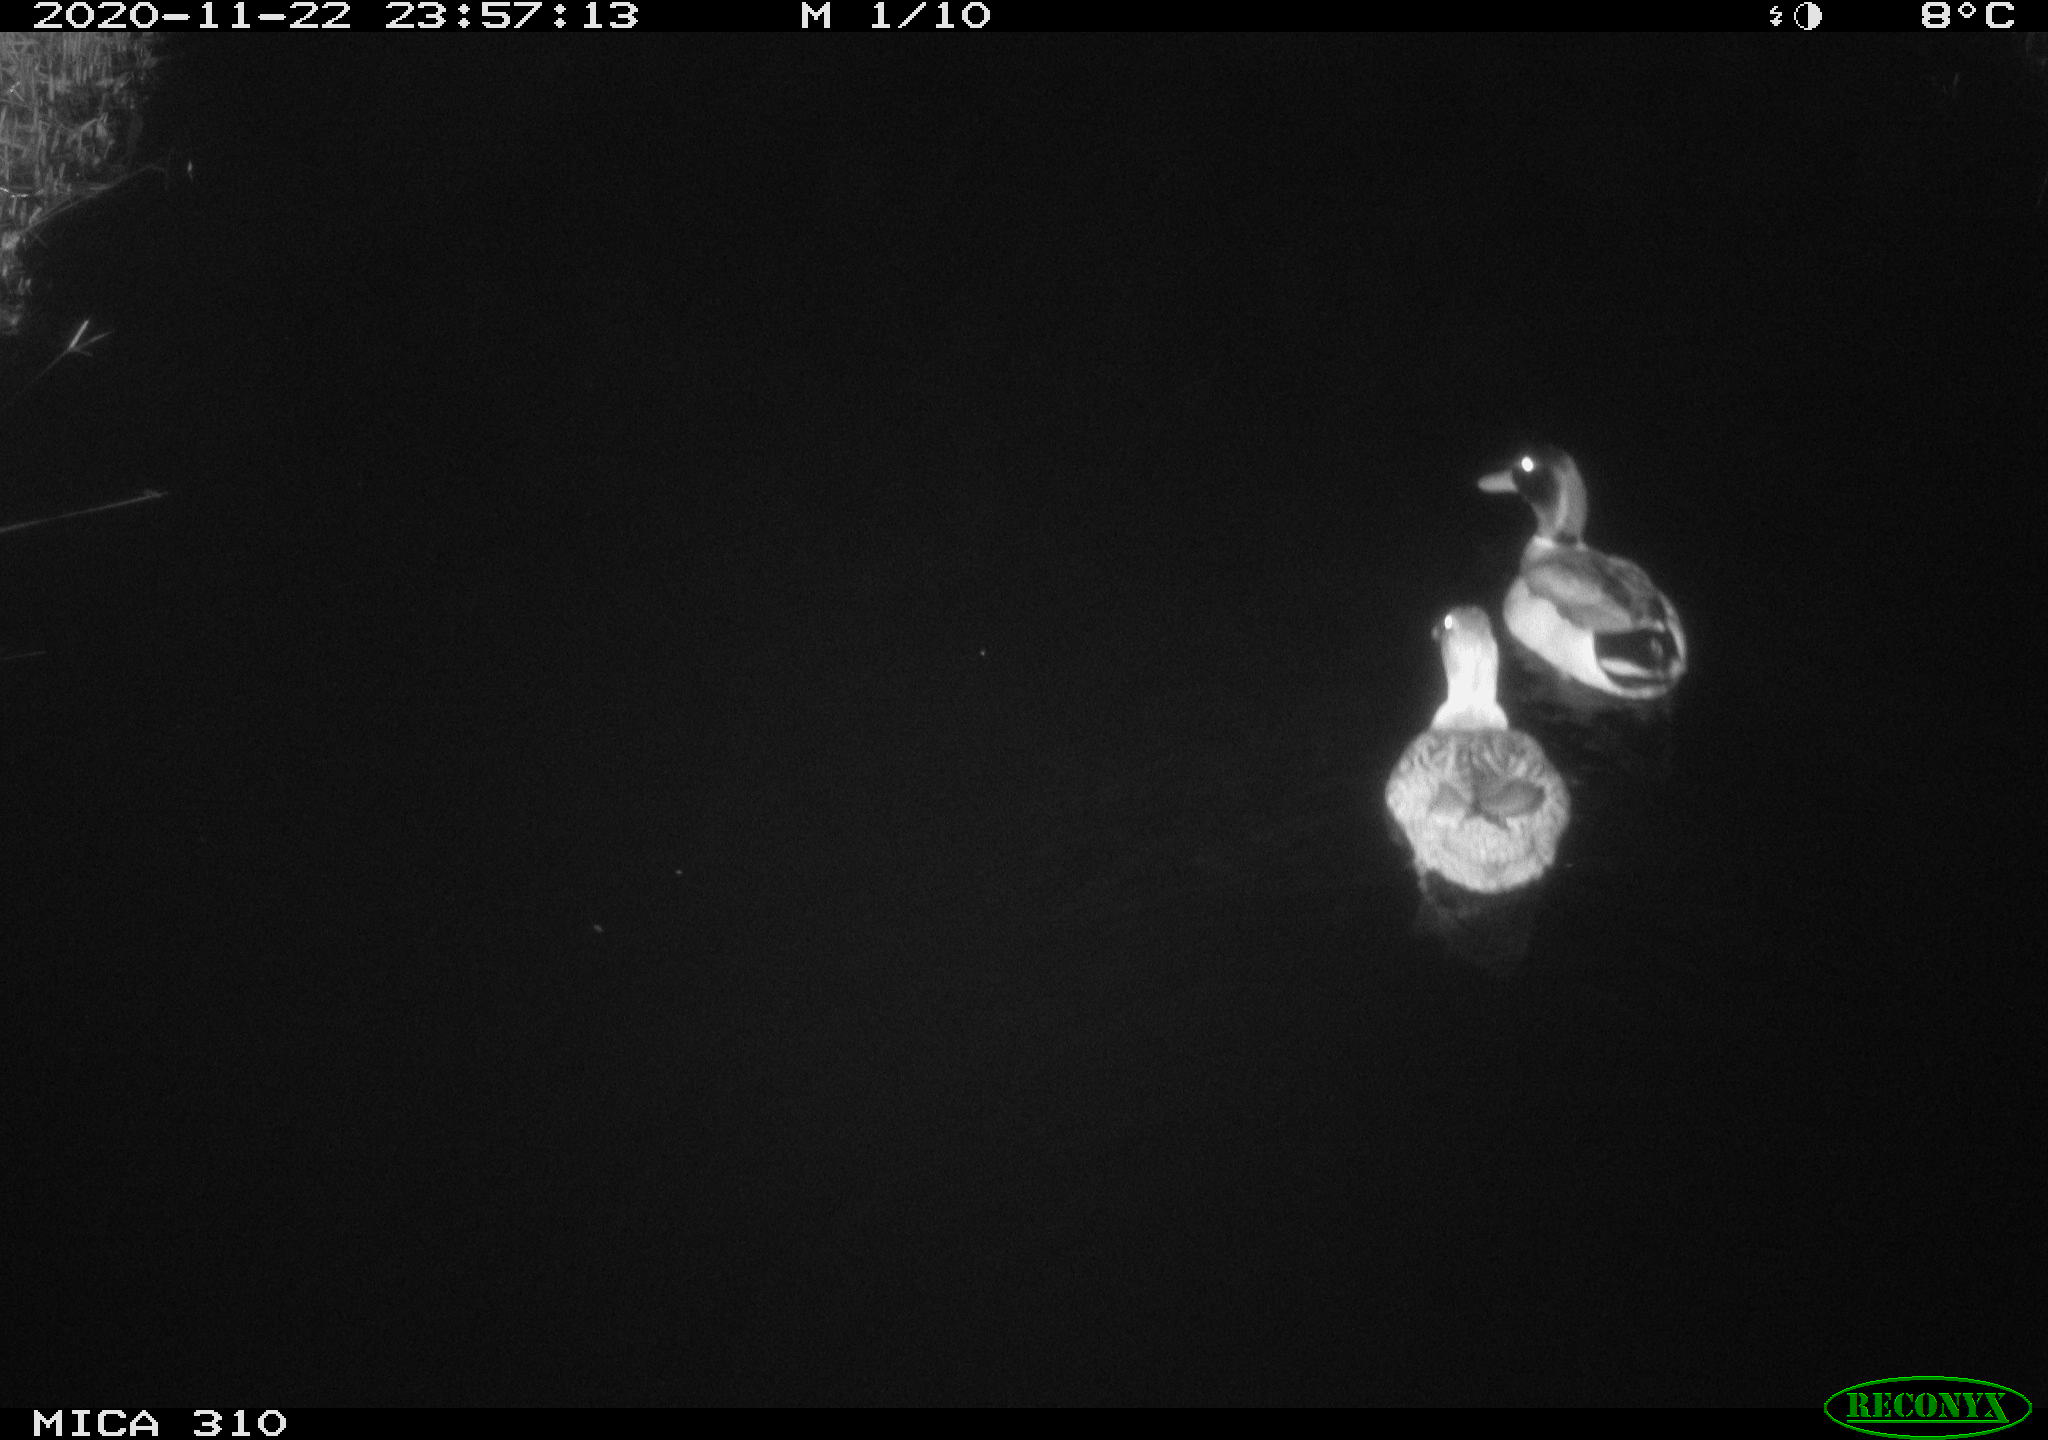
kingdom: Animalia
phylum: Chordata
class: Aves
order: Anseriformes
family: Anatidae
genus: Anas
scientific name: Anas platyrhynchos
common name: Mallard
